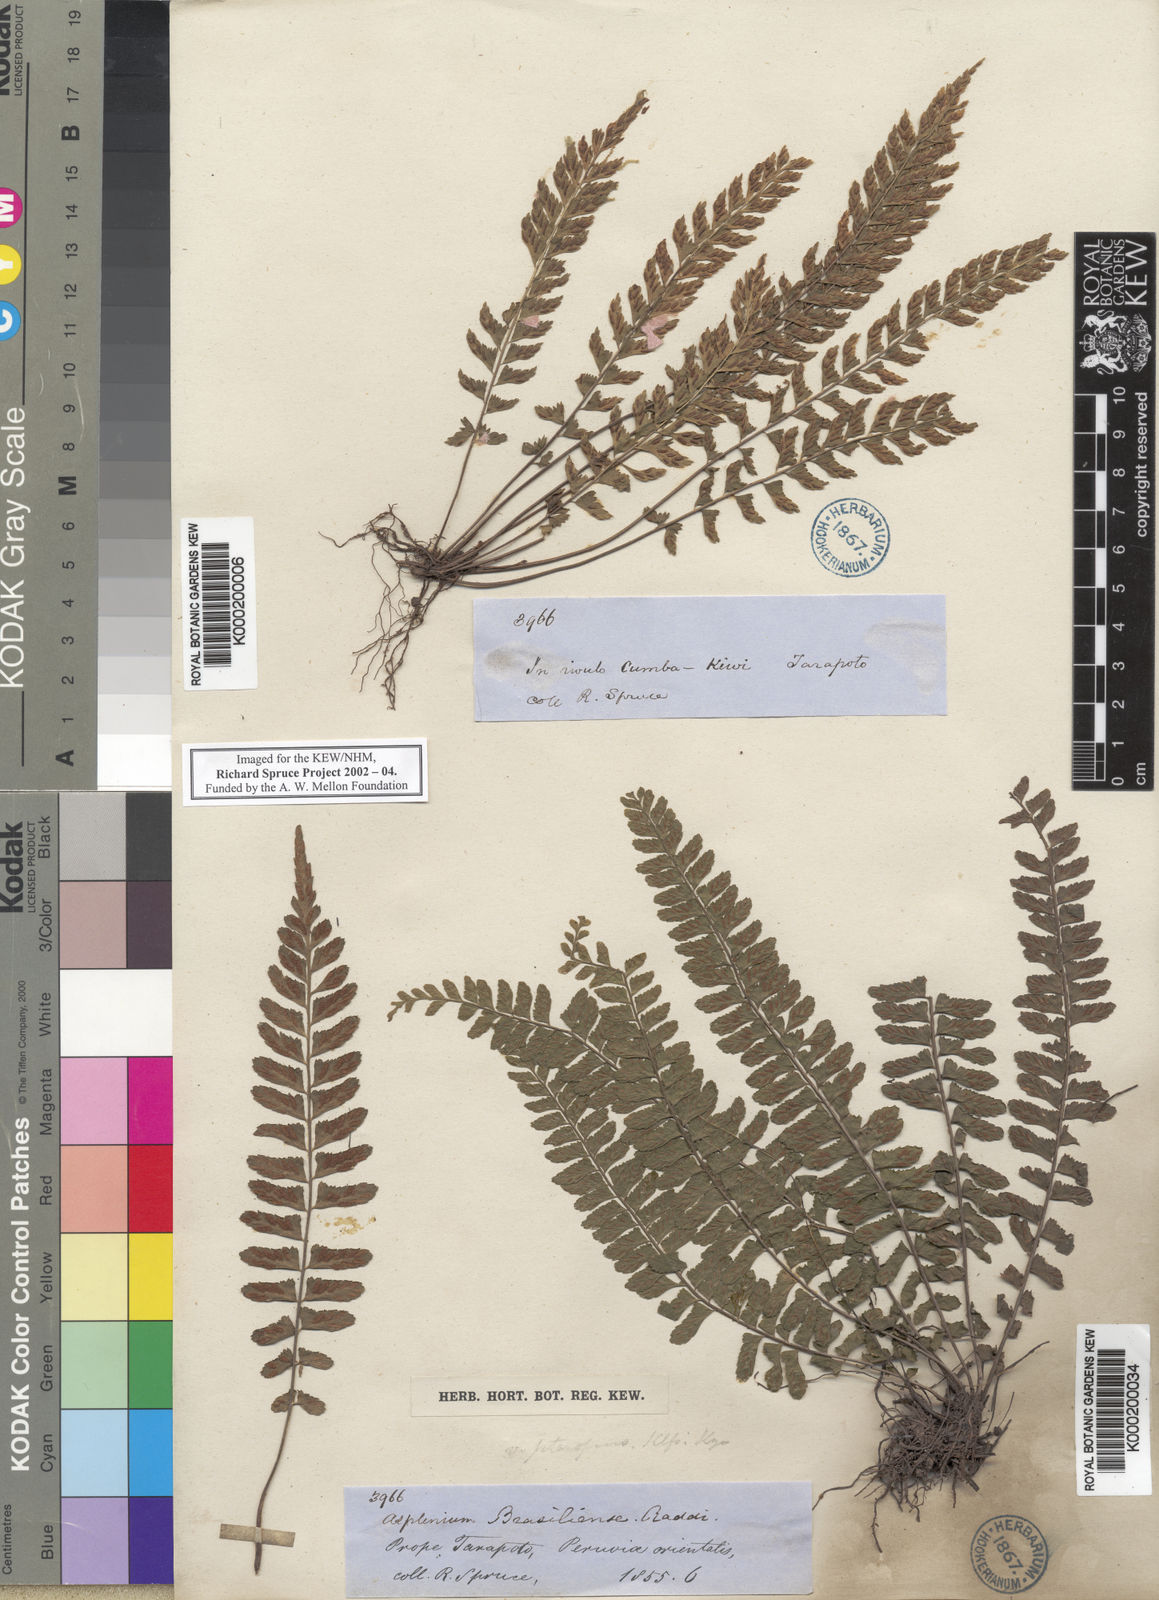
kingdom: Plantae
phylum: Tracheophyta
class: Polypodiopsida
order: Polypodiales
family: Aspleniaceae
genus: Asplenium
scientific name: Asplenium lunulatum
